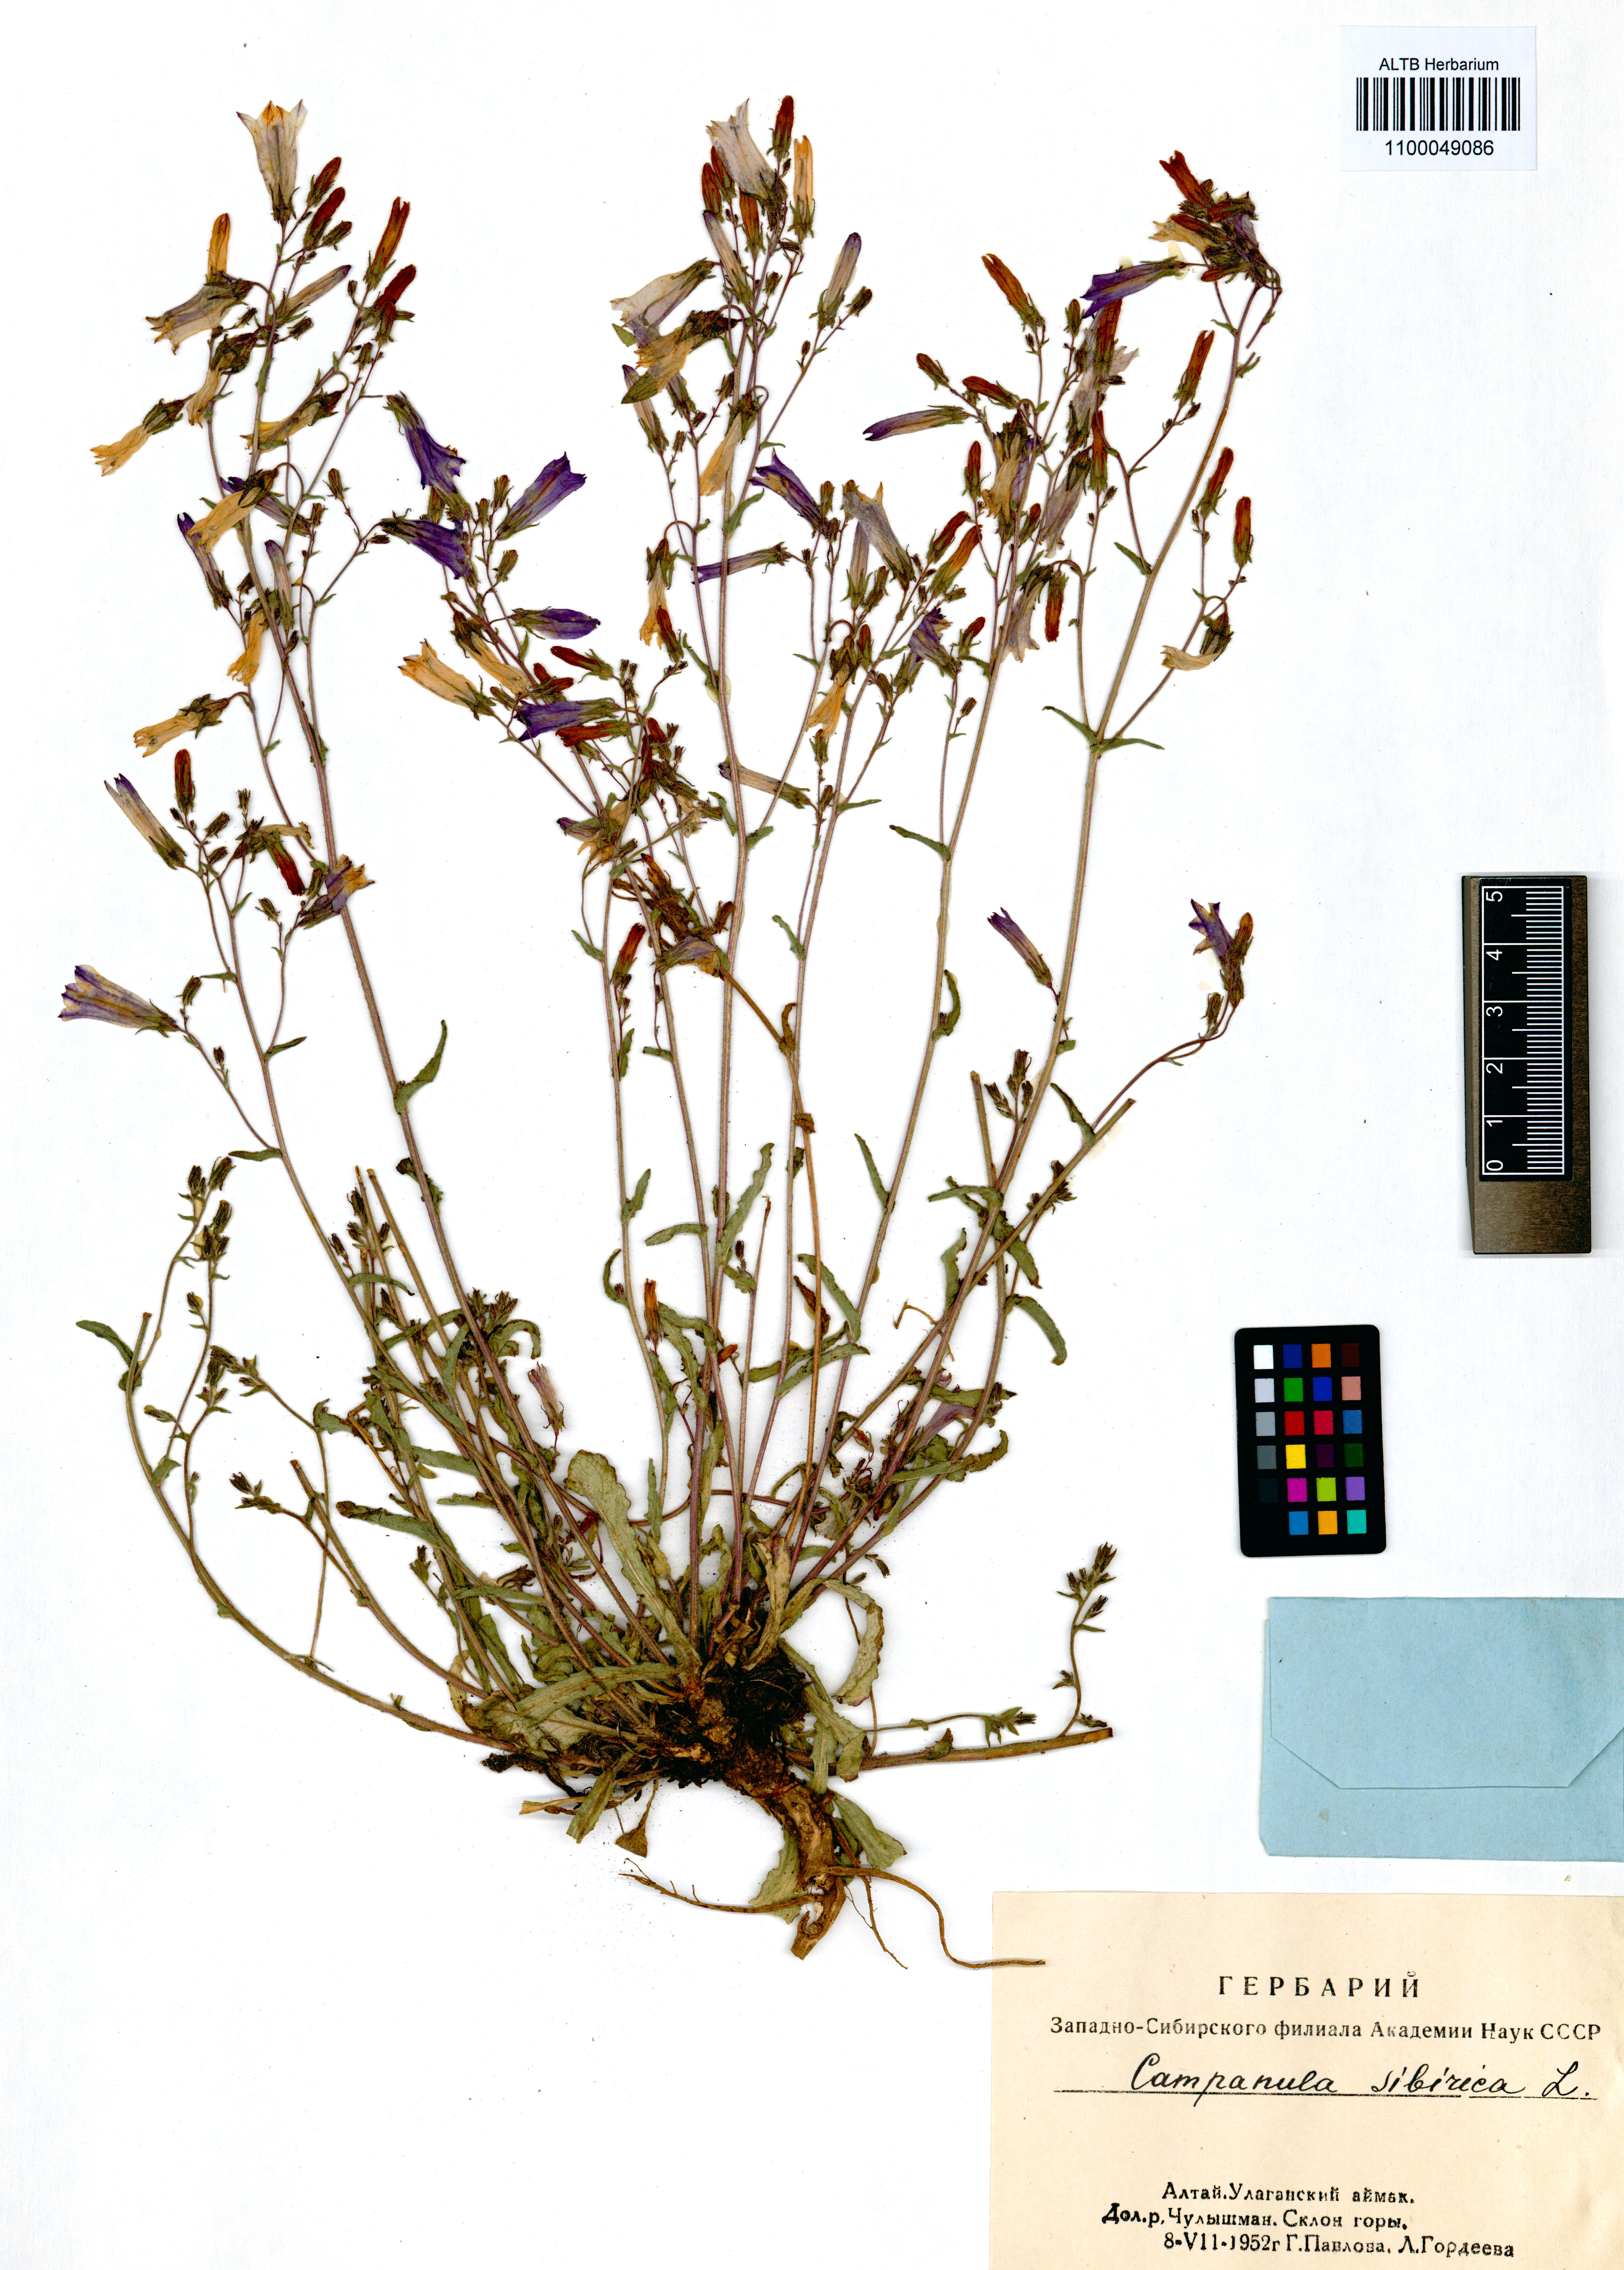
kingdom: Plantae
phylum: Tracheophyta
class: Magnoliopsida
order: Asterales
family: Campanulaceae
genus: Campanula
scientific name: Campanula sibirica
